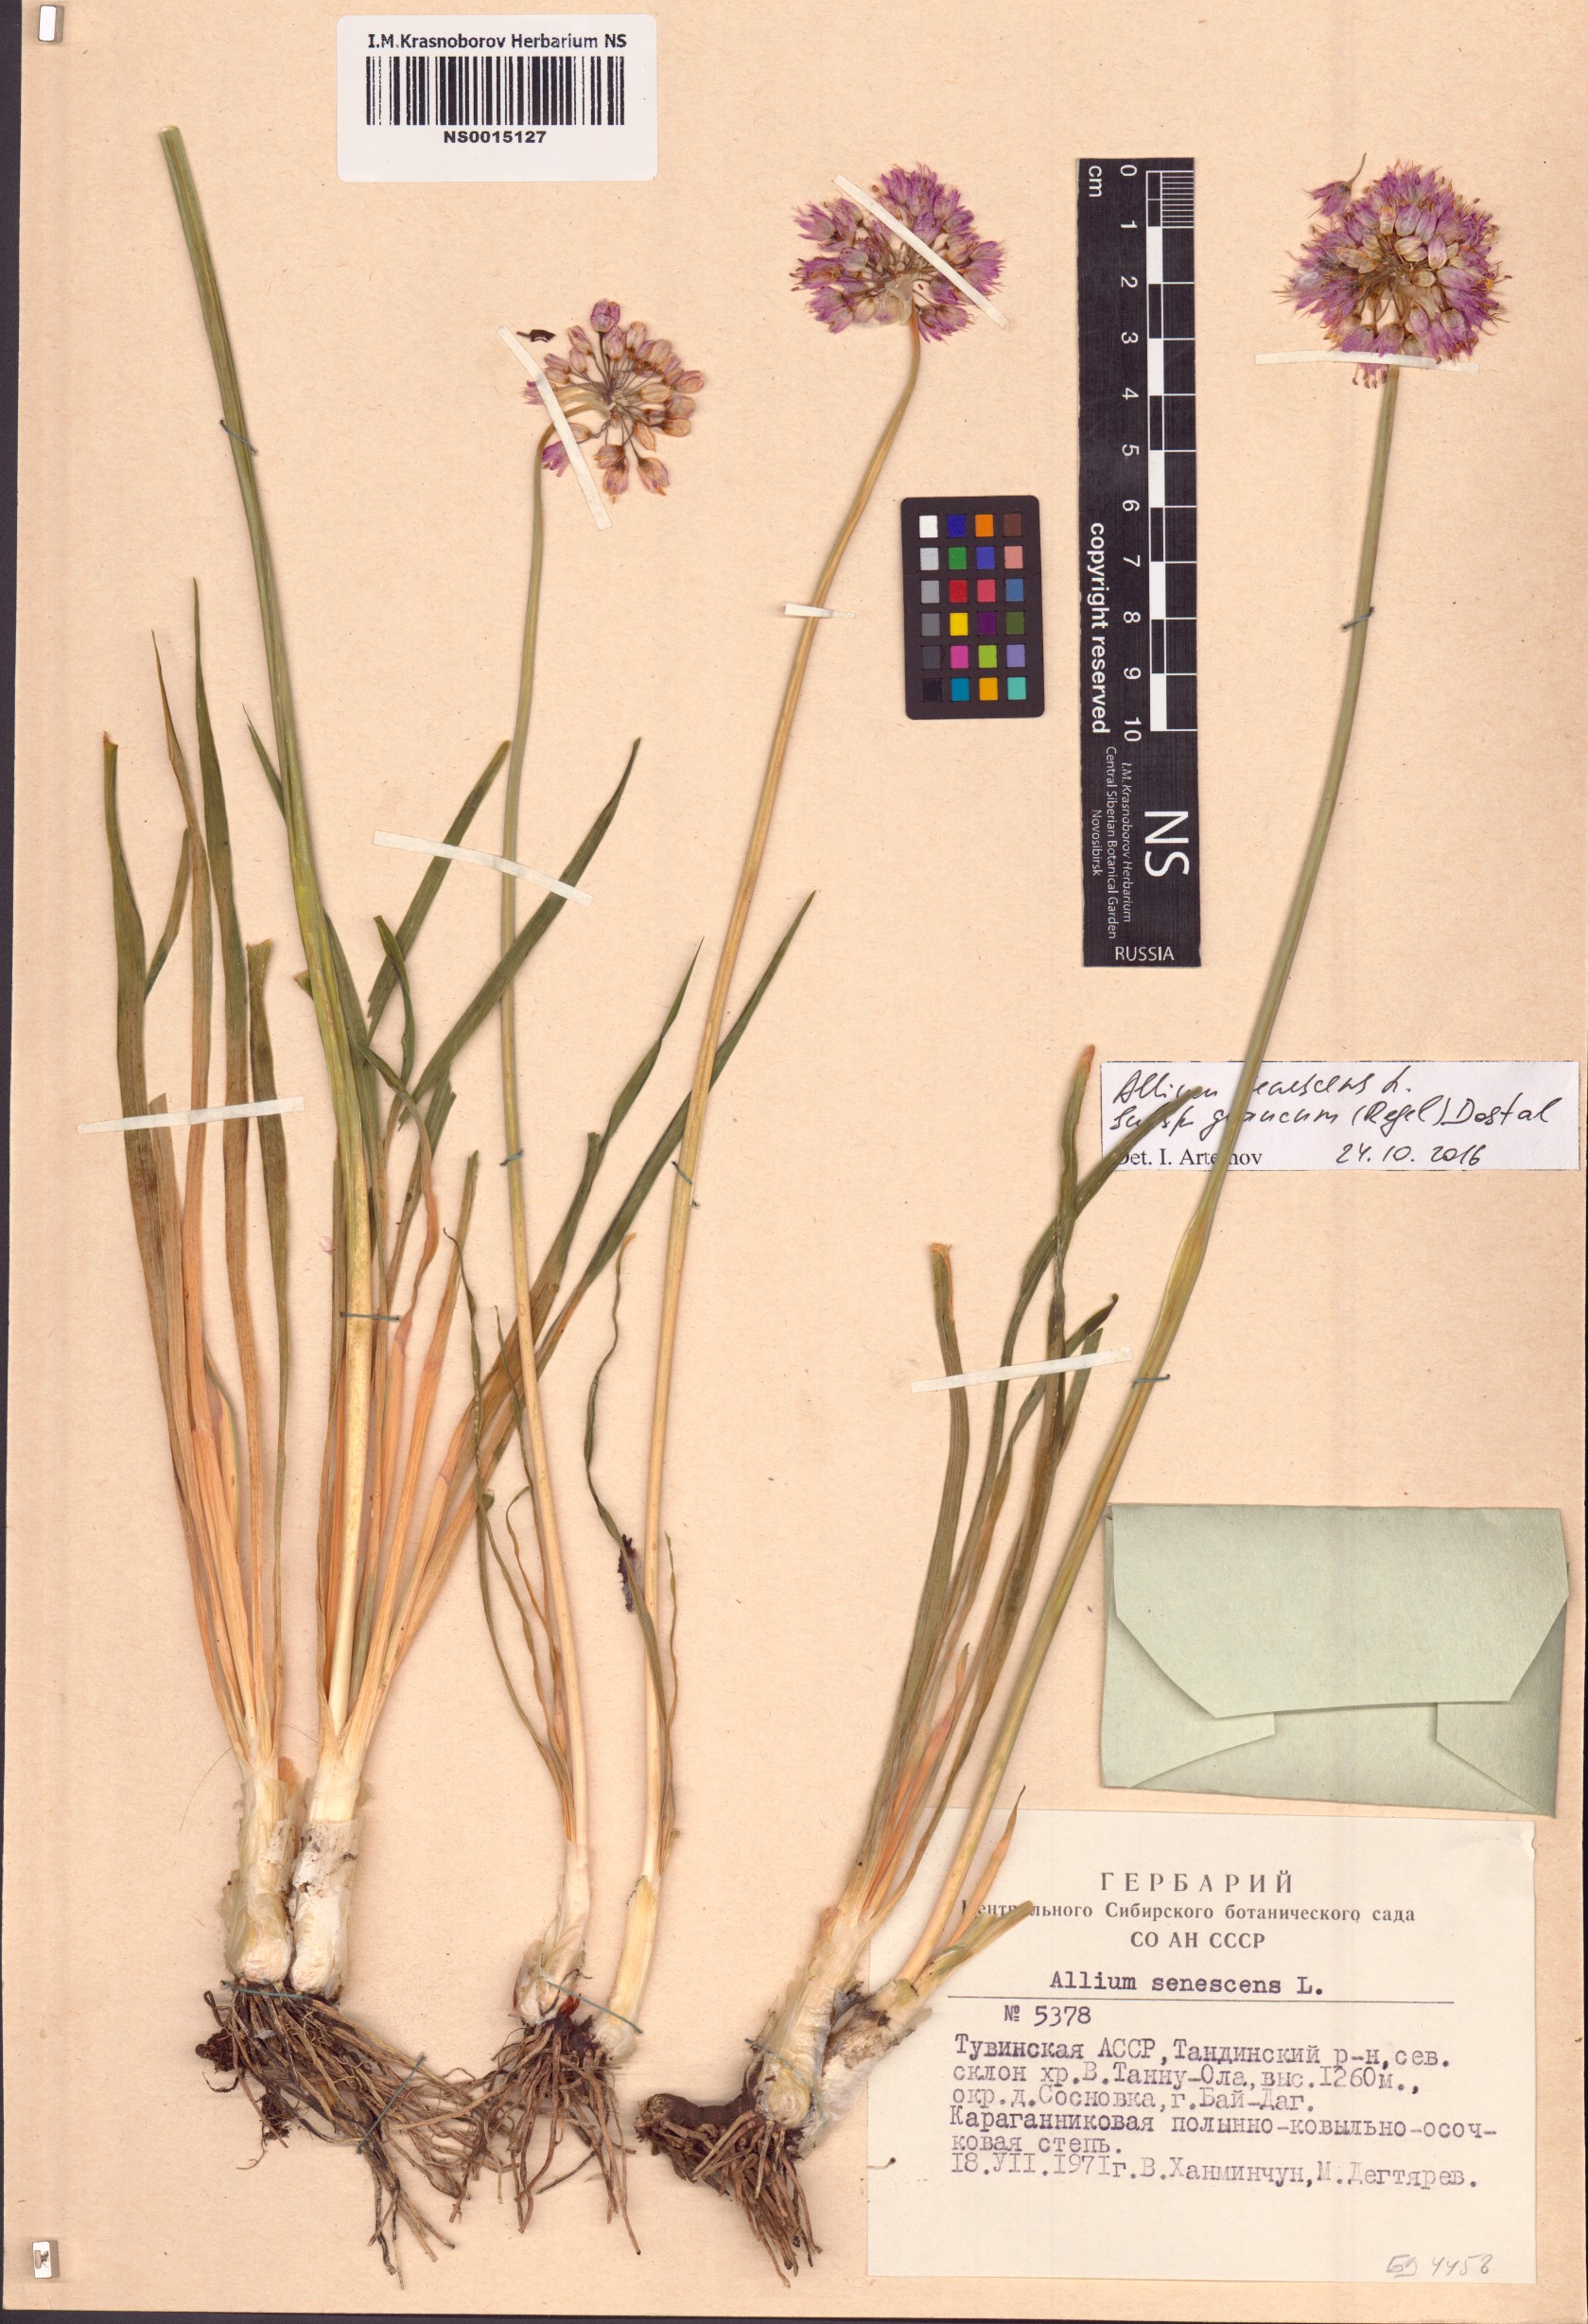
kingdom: Plantae
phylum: Tracheophyta
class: Liliopsida
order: Asparagales
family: Amaryllidaceae
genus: Allium
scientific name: Allium senescens
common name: German garlic
